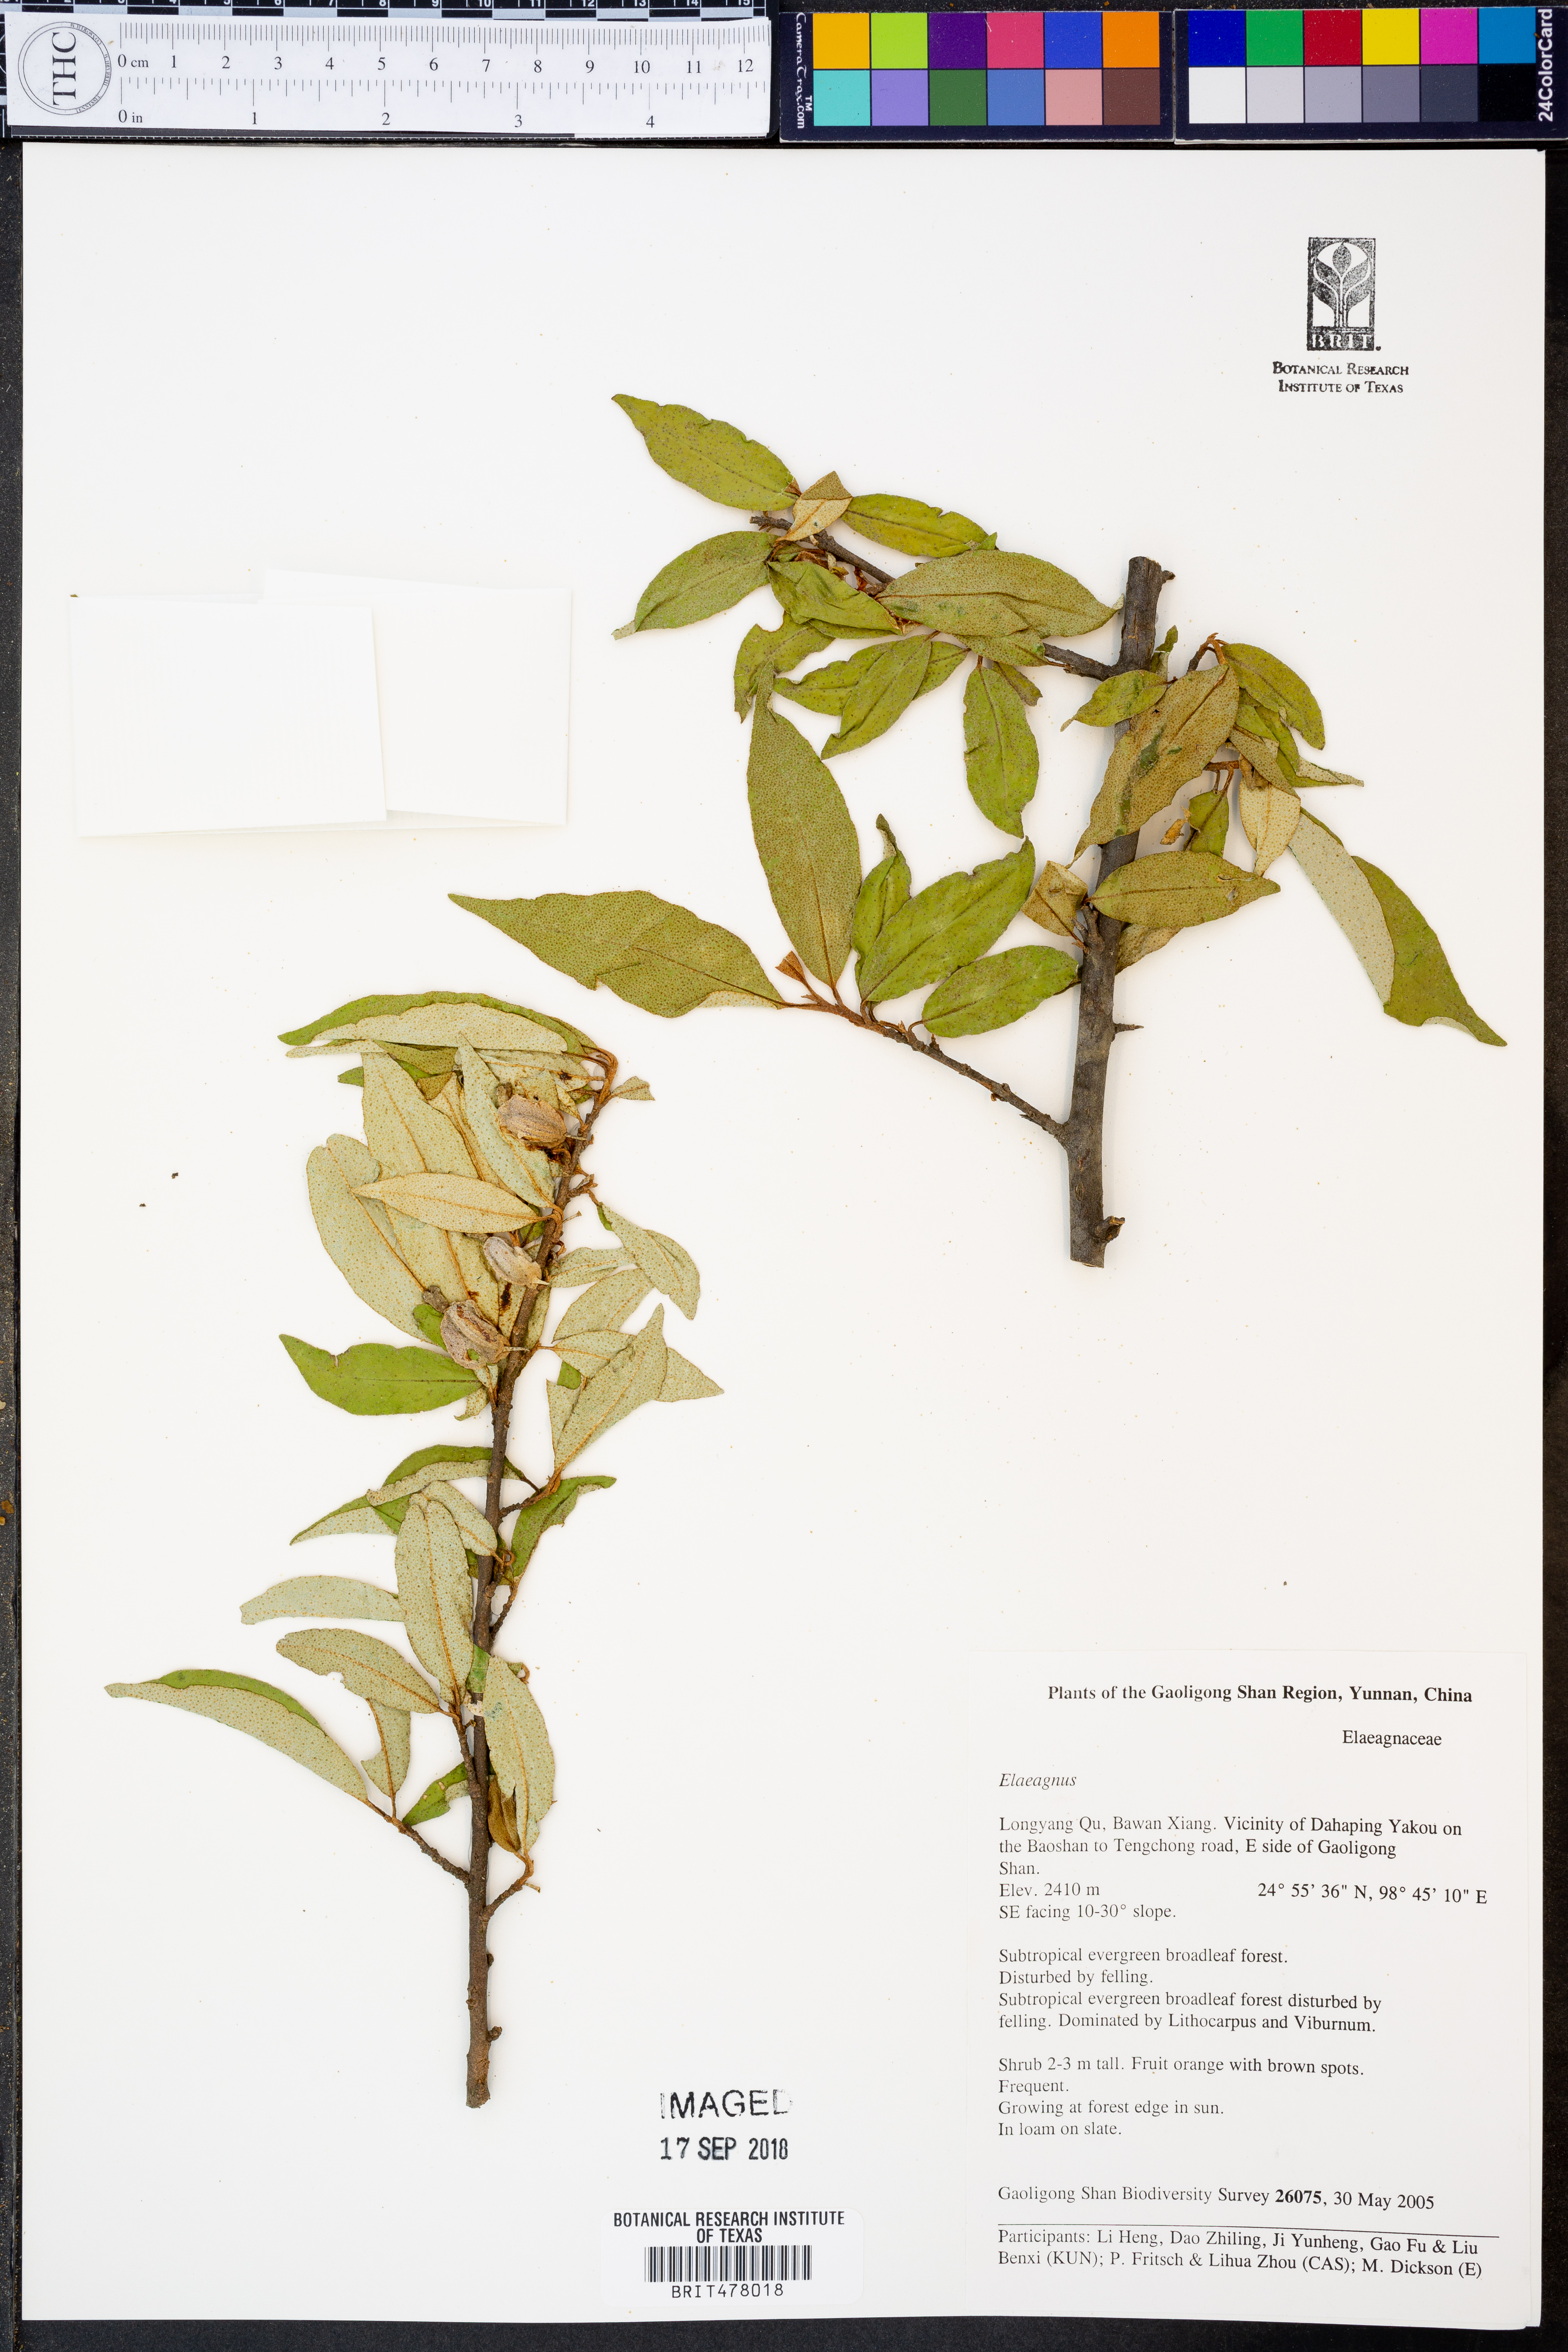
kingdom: Plantae
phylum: Tracheophyta
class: Magnoliopsida
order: Rosales
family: Elaeagnaceae
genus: Elaeagnus
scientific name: Elaeagnus
